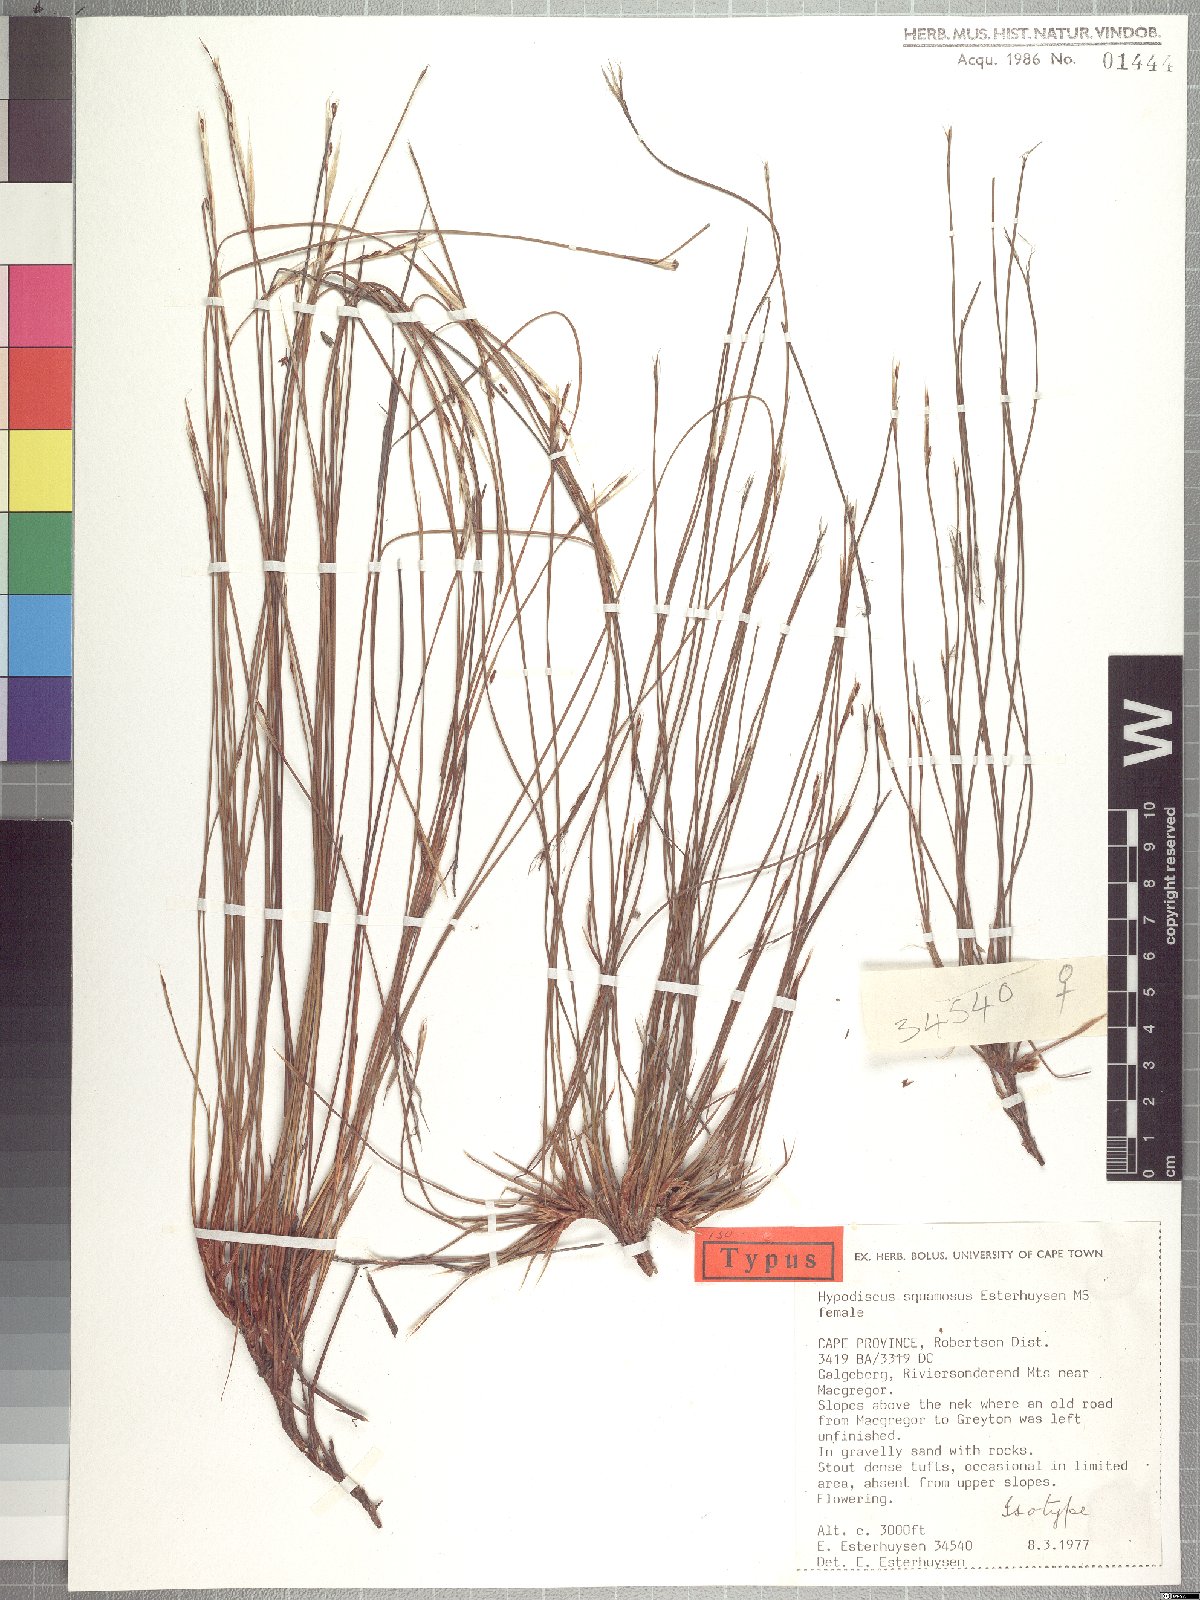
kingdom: Plantae
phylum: Tracheophyta
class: Liliopsida
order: Poales
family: Restionaceae
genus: Hypodiscus
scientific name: Hypodiscus squamosus
